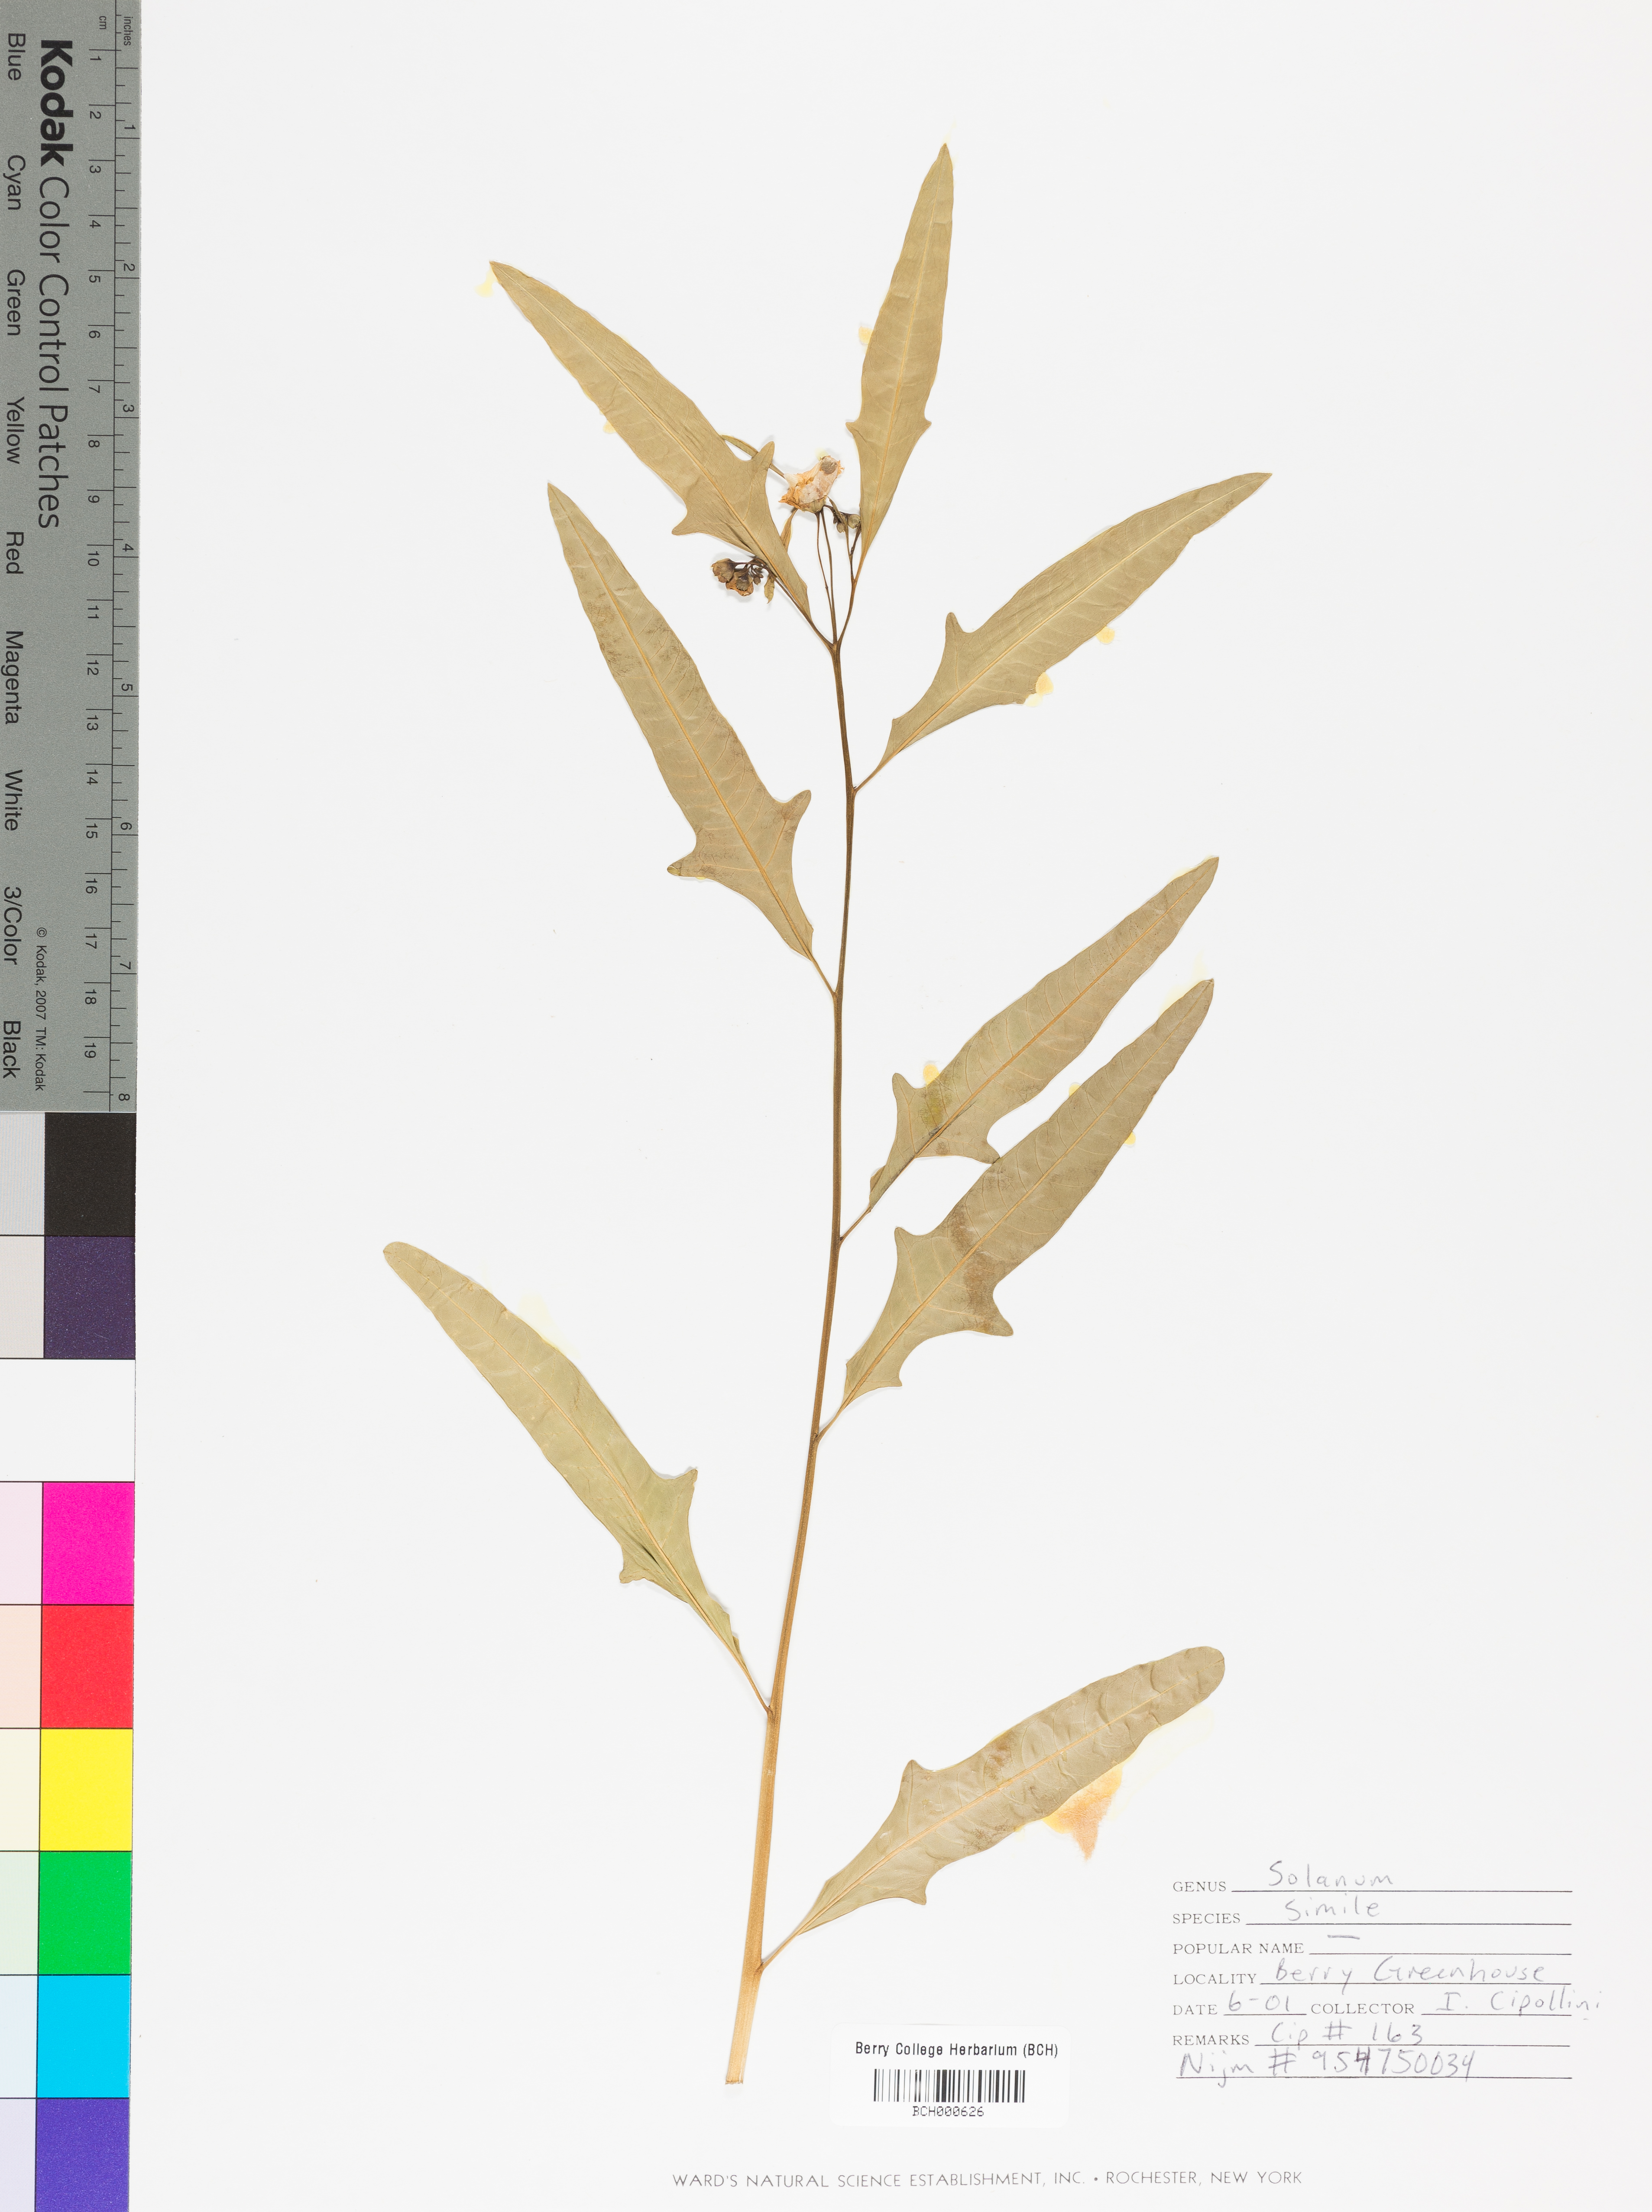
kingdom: Plantae
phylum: Tracheophyta
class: Magnoliopsida
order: Solanales
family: Solanaceae
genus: Solanum
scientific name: Solanum simile
